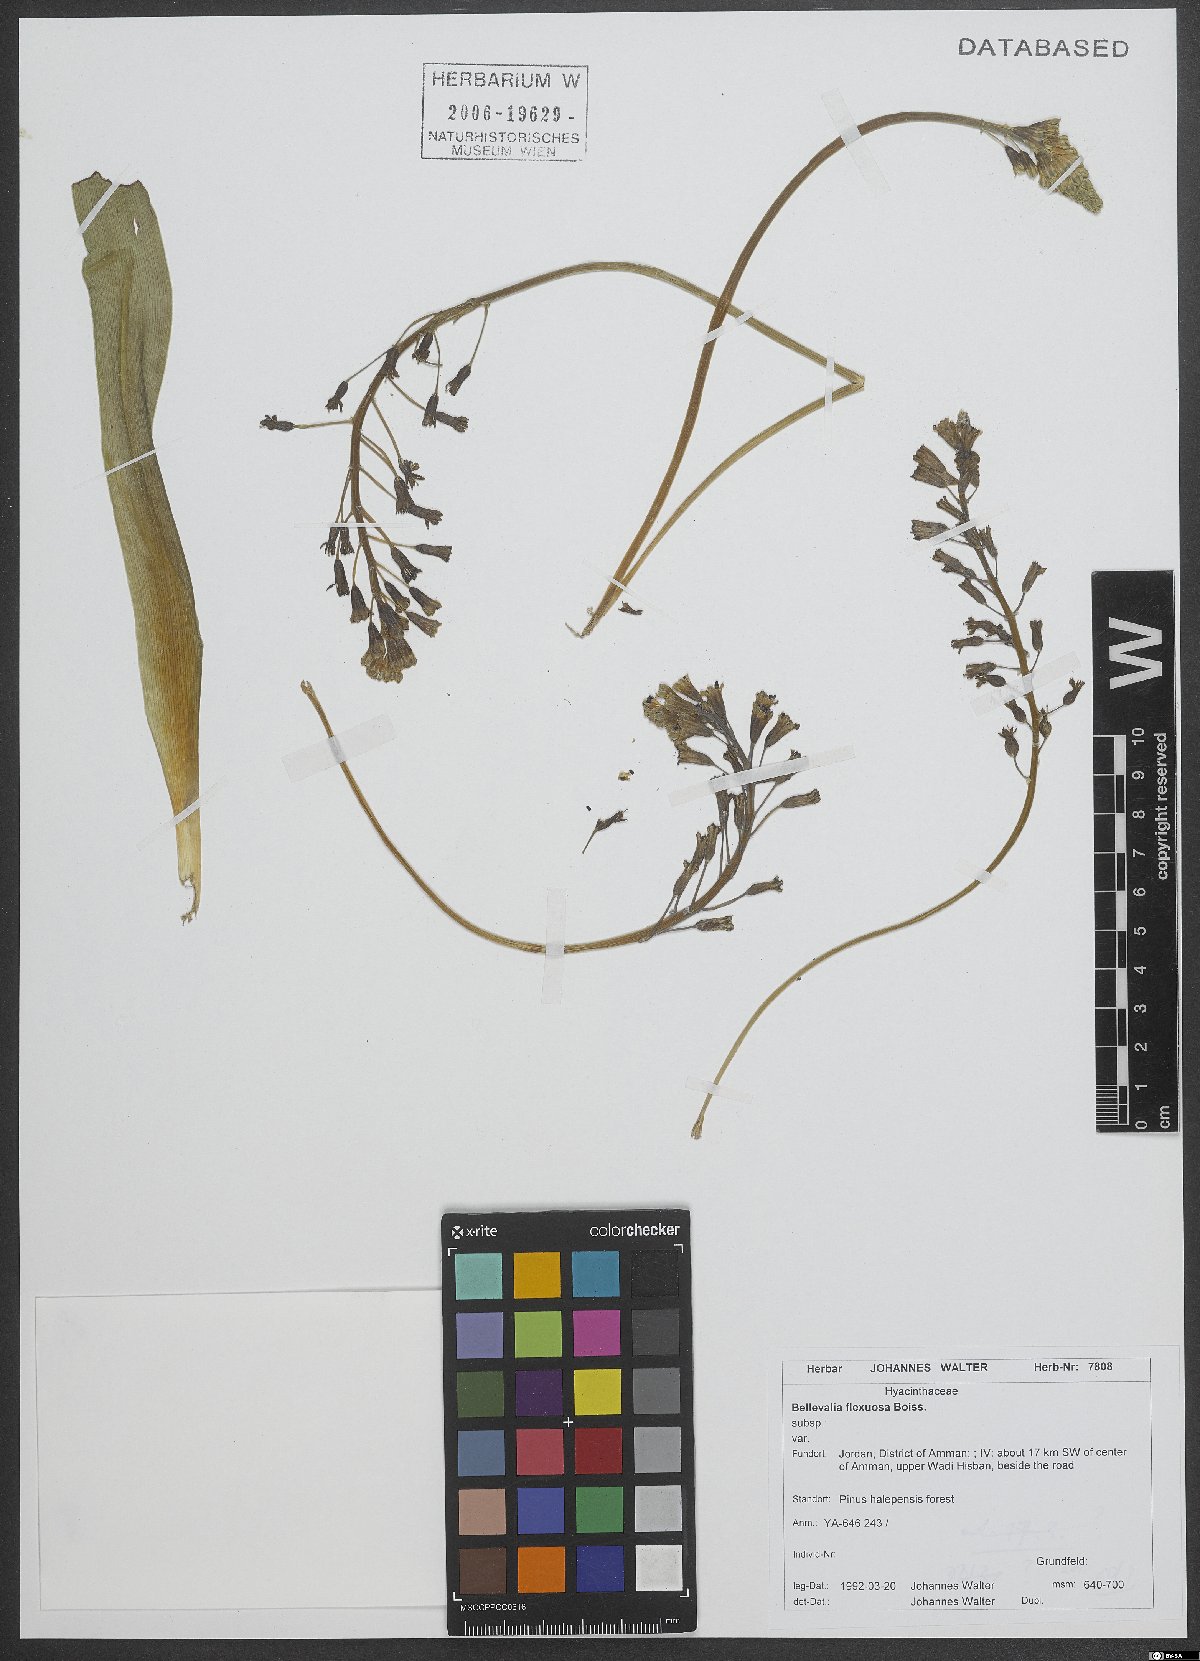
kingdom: Plantae
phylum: Tracheophyta
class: Liliopsida
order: Asparagales
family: Asparagaceae
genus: Bellevalia
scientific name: Bellevalia flexuosa
